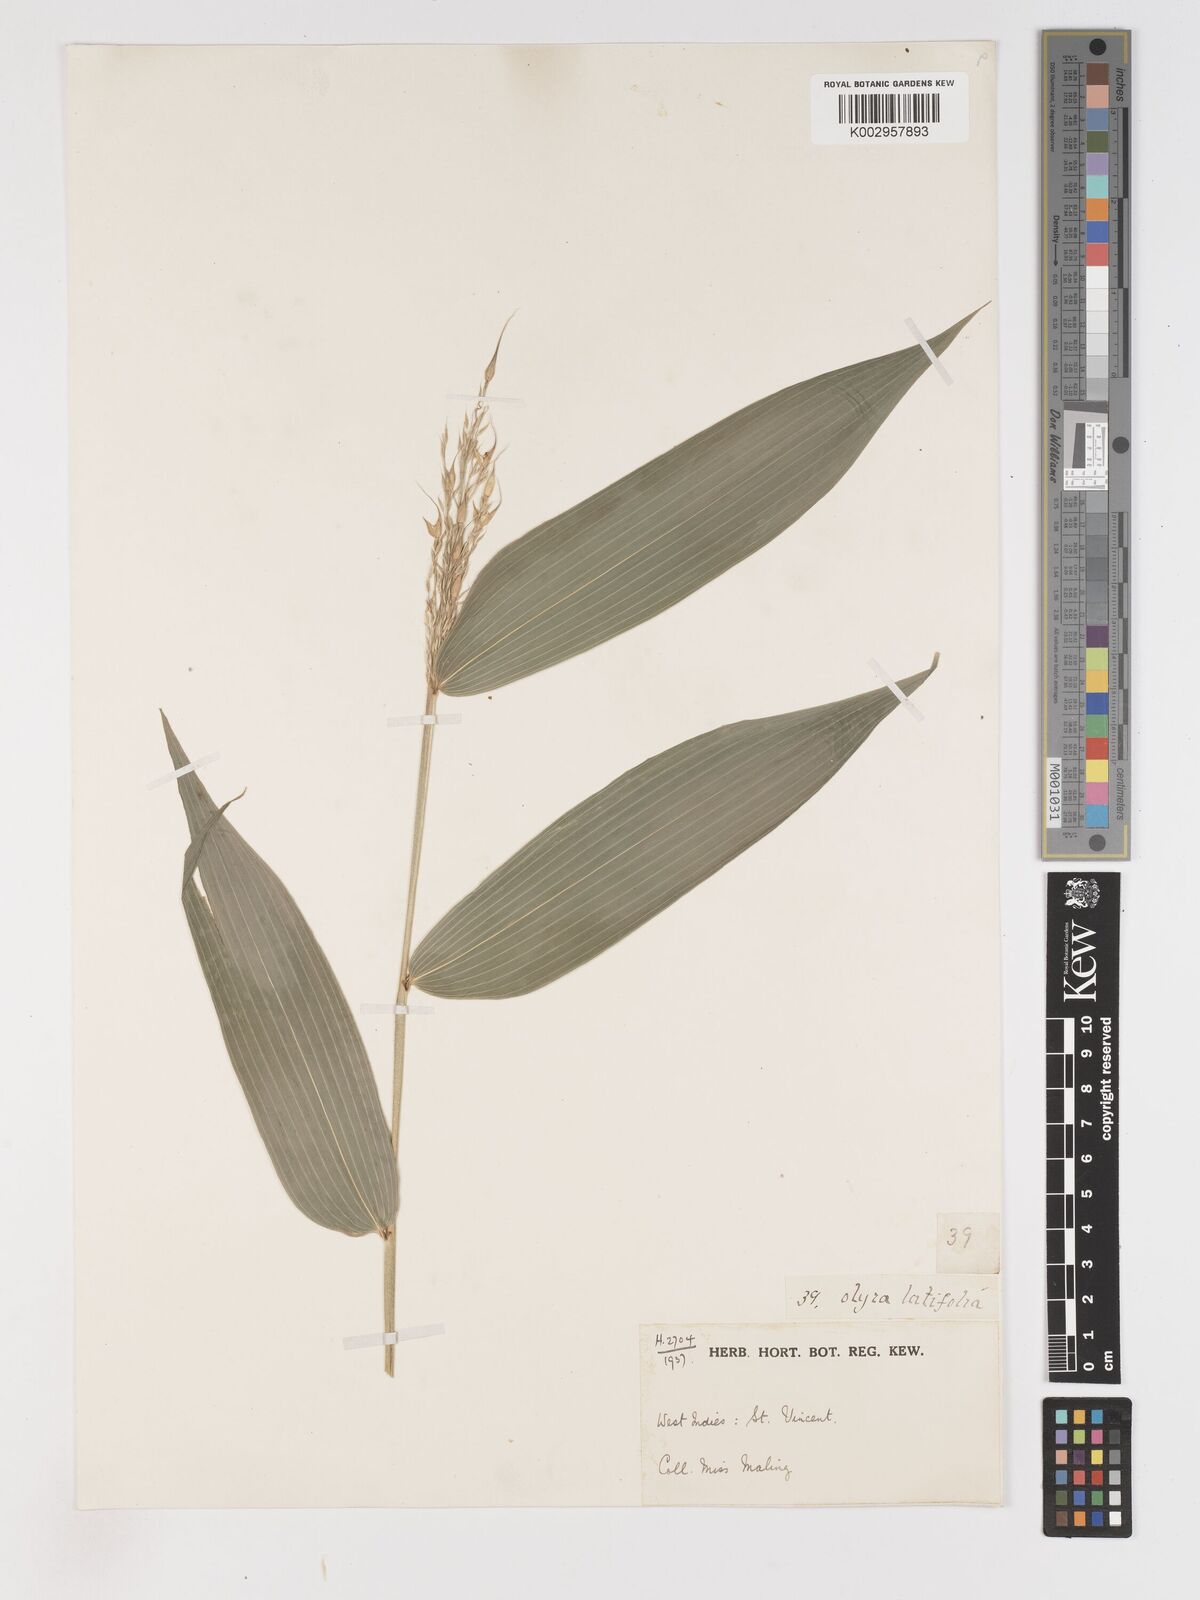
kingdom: Plantae
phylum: Tracheophyta
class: Liliopsida
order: Poales
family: Poaceae
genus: Olyra
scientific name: Olyra latifolia
